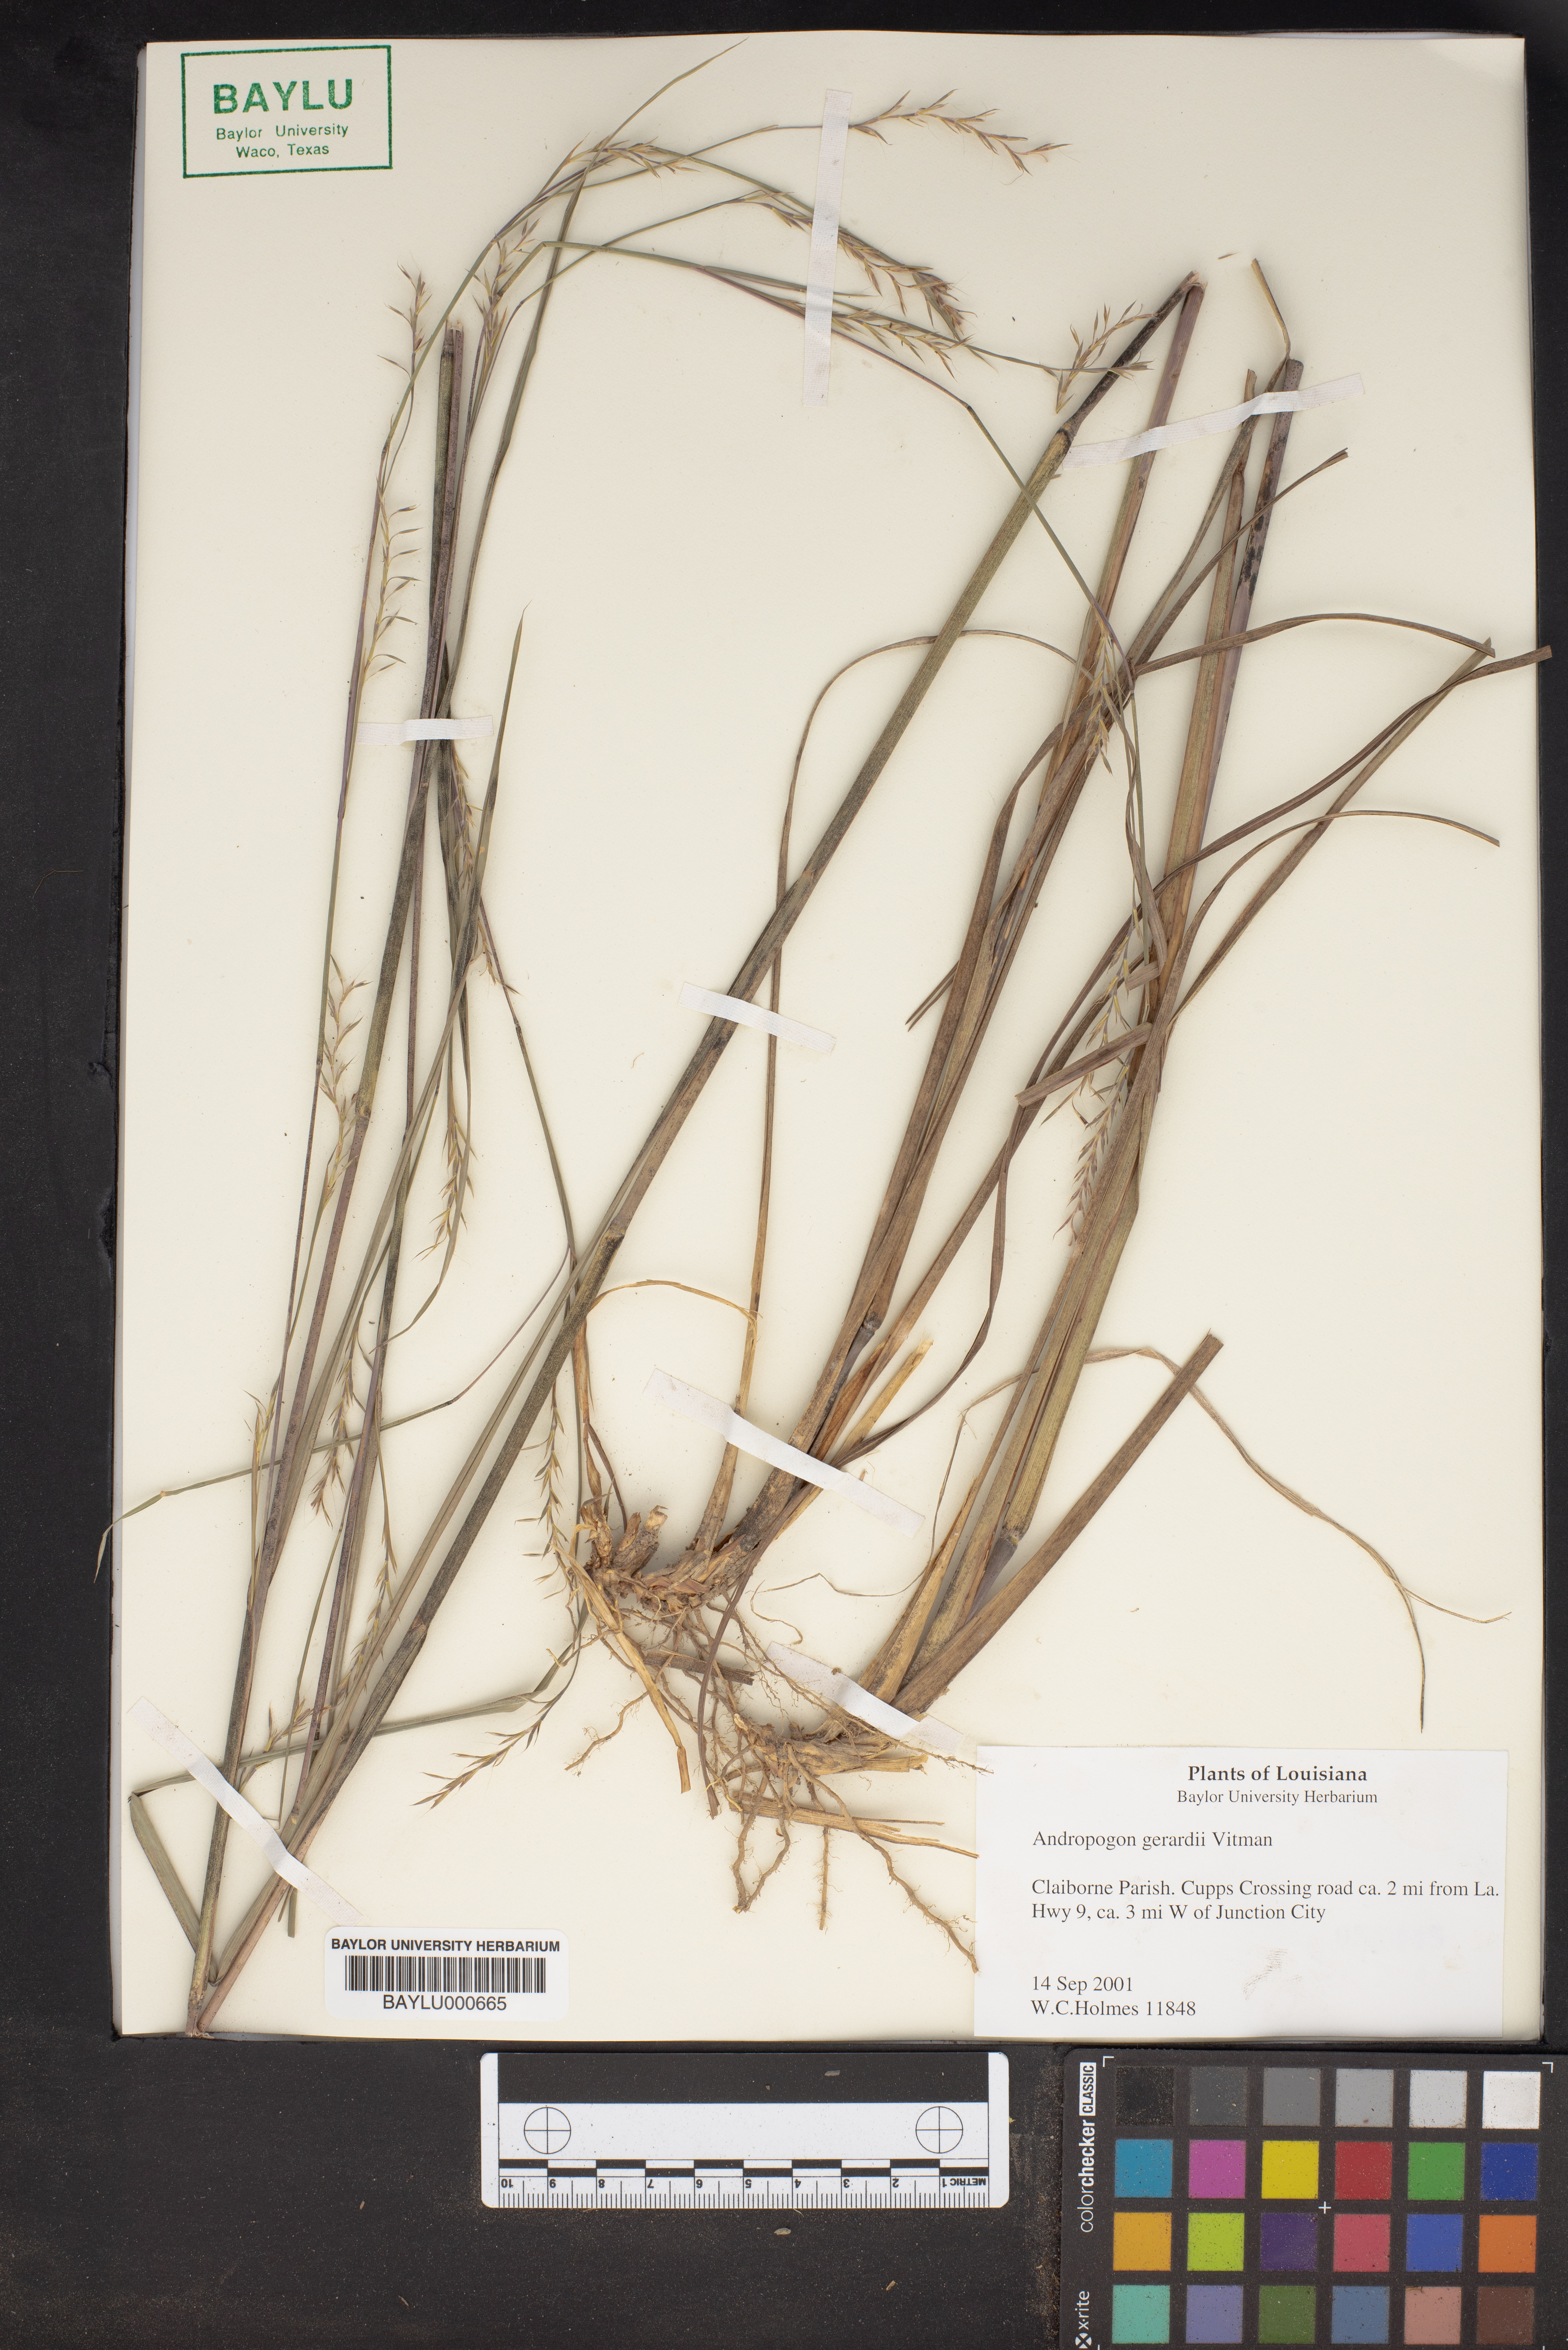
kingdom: Plantae
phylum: Tracheophyta
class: Liliopsida
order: Poales
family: Poaceae
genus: Andropogon
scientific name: Andropogon gerardi
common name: Big bluestem
